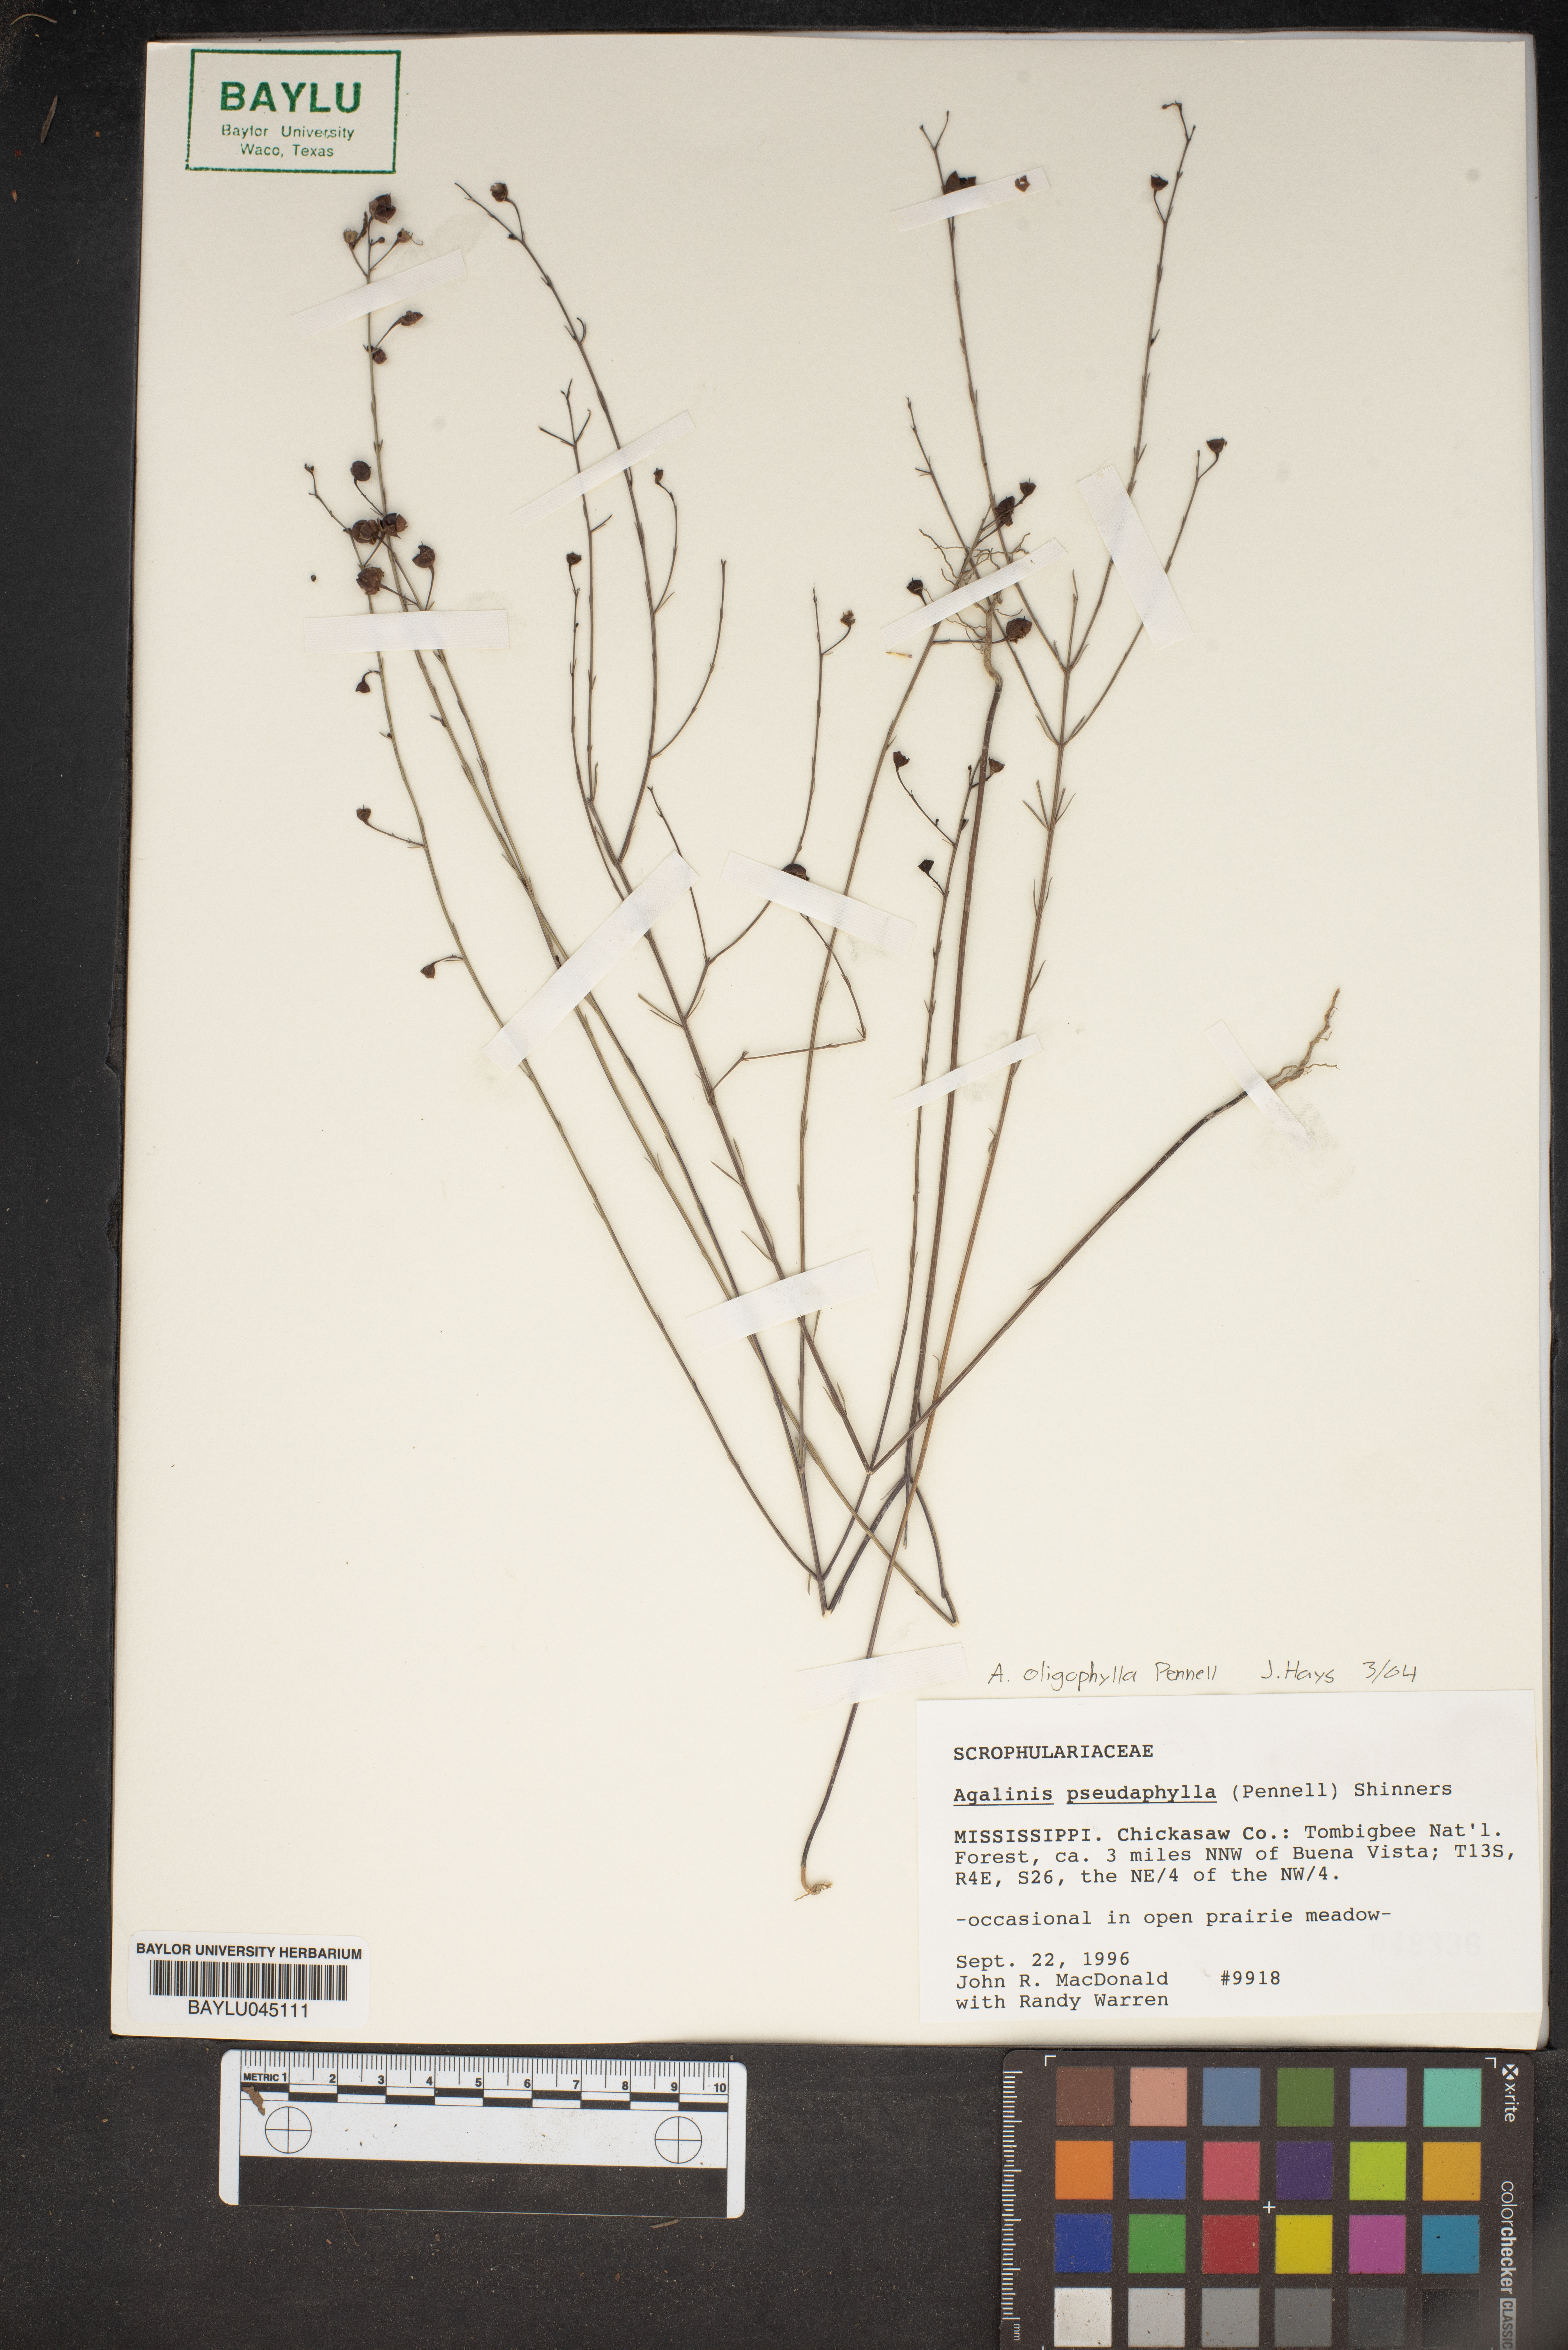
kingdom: Plantae
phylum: Tracheophyta
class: Magnoliopsida
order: Lamiales
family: Orobanchaceae
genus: Agalinis
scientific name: Agalinis aphylla
